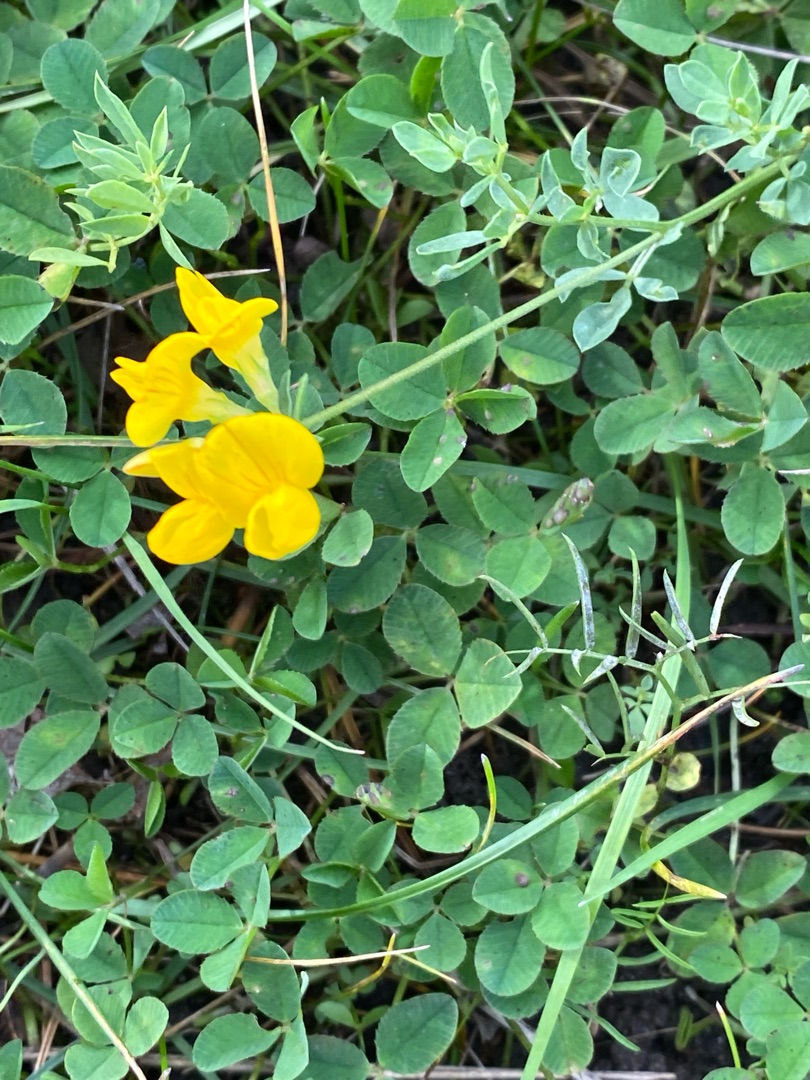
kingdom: Plantae
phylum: Tracheophyta
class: Magnoliopsida
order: Fabales
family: Fabaceae
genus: Lotus
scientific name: Lotus corniculatus
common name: Almindelig kællingetand
